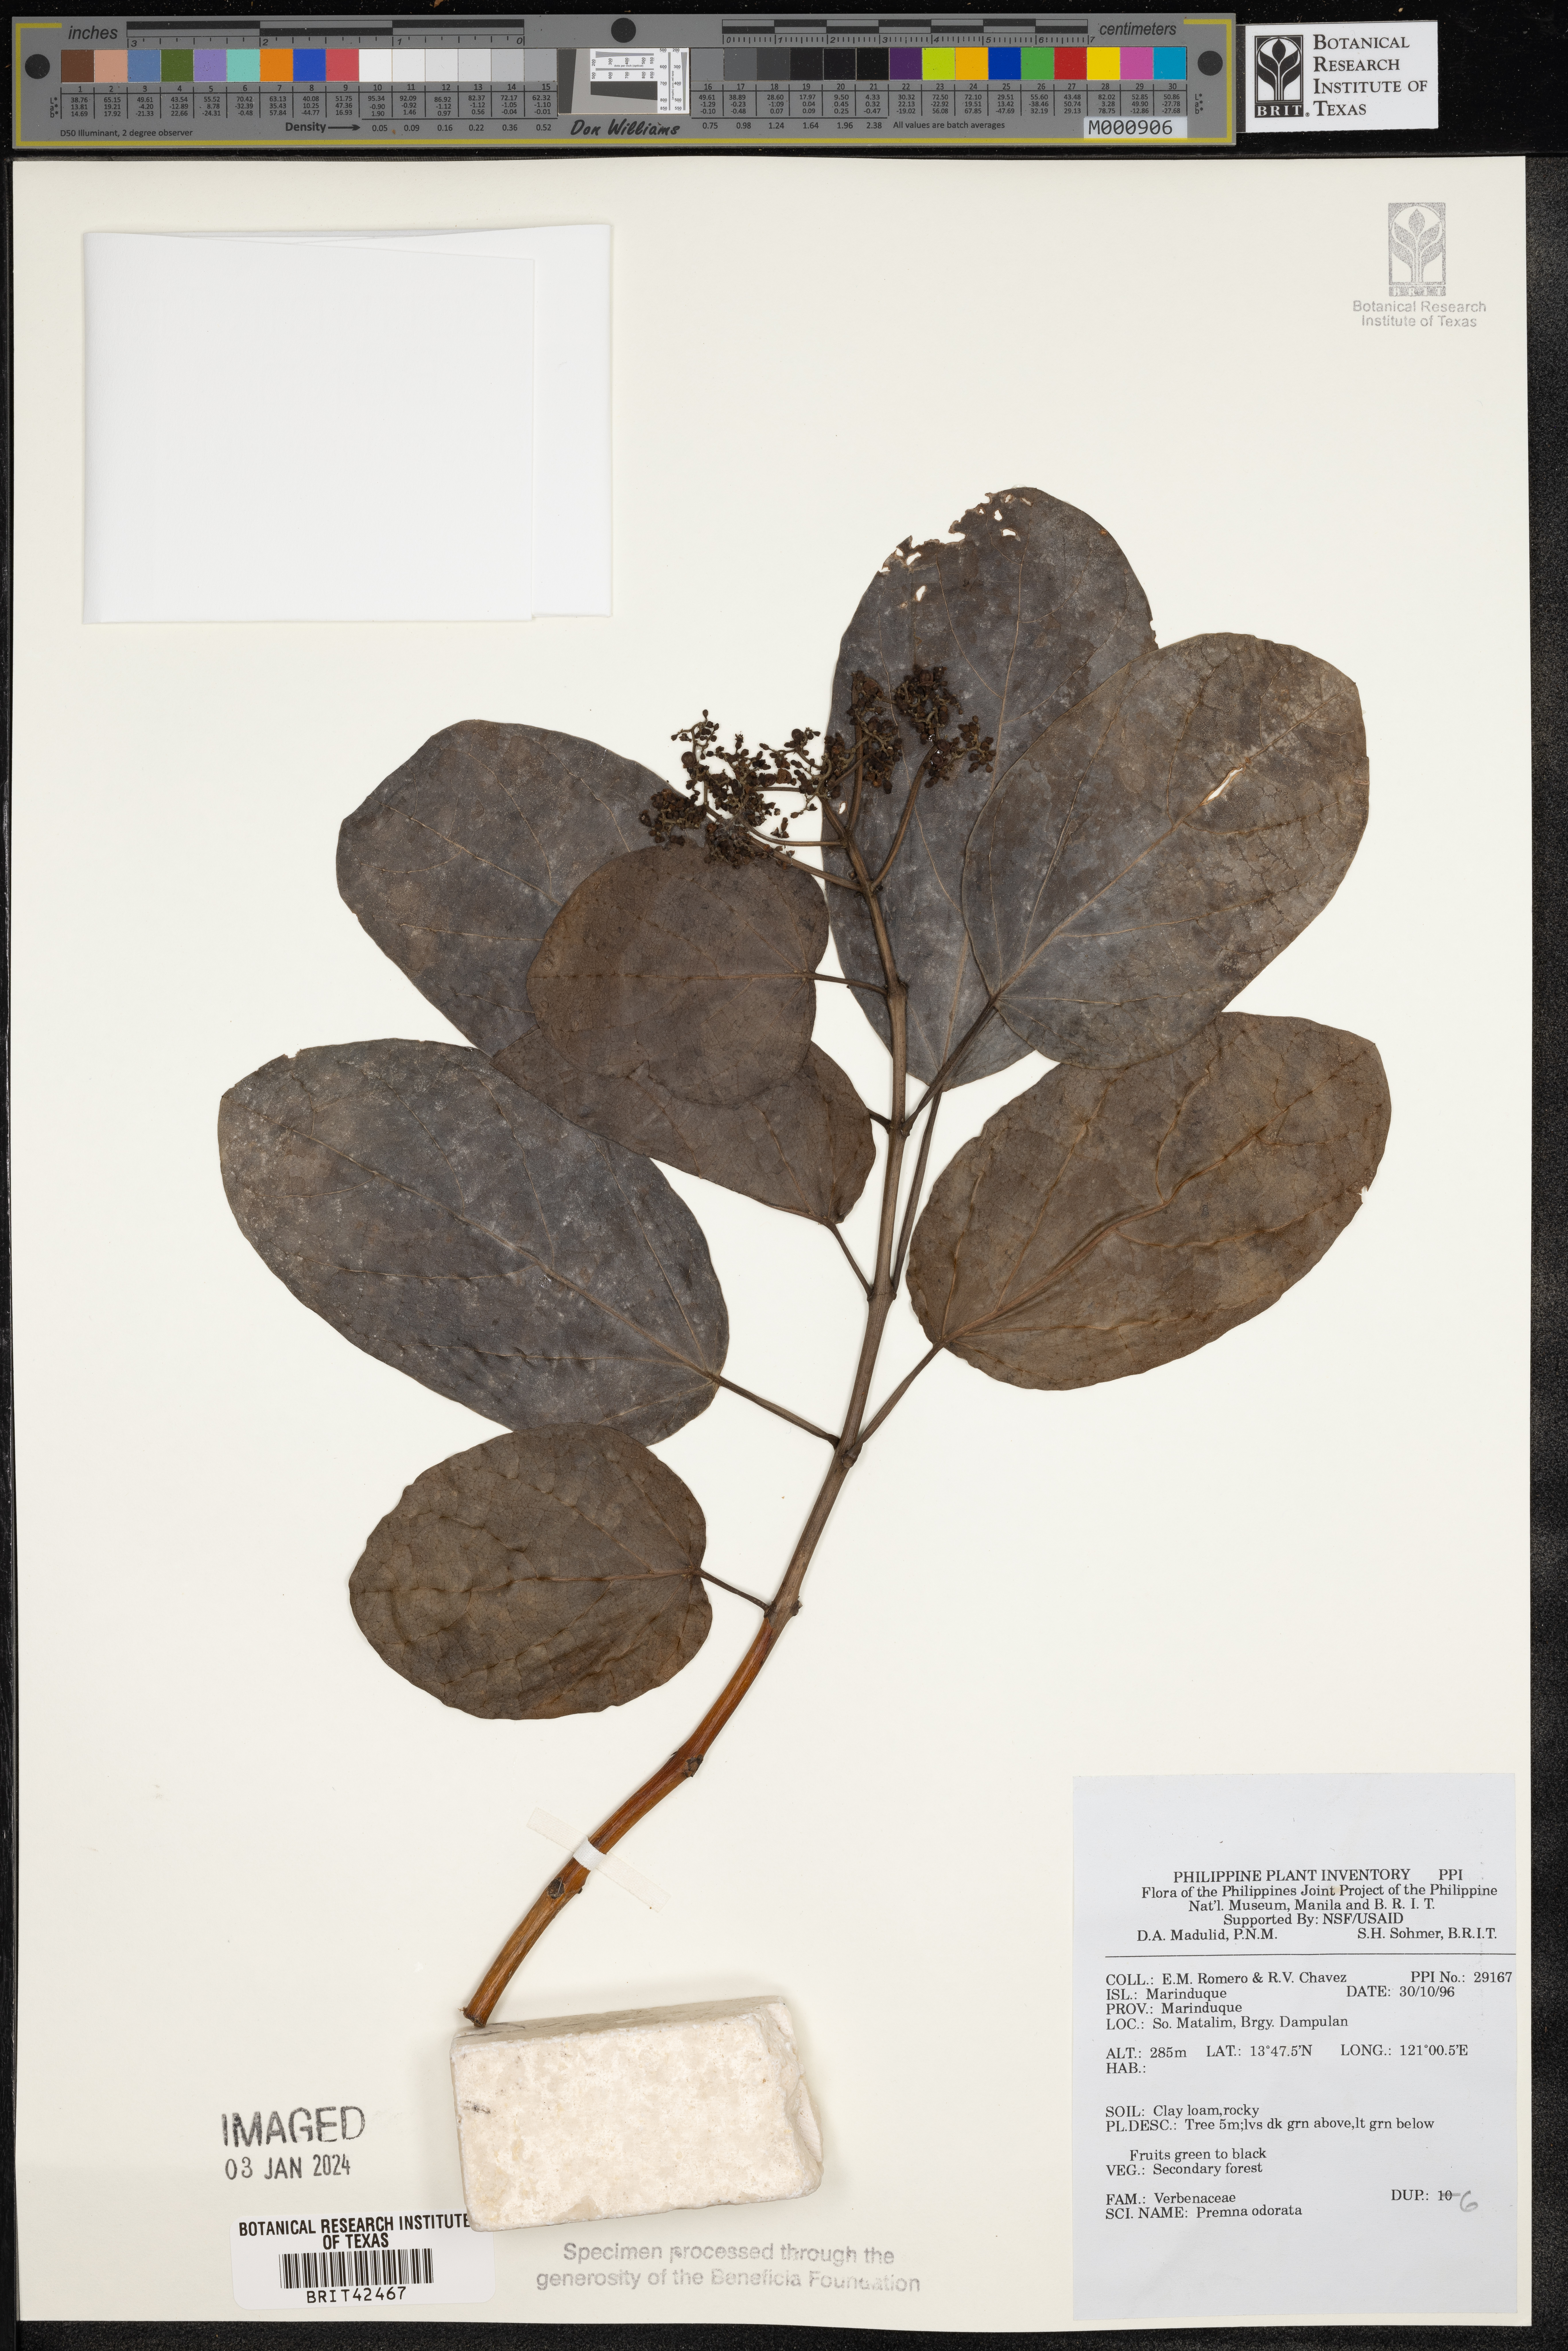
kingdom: Plantae
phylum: Tracheophyta
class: Magnoliopsida
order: Lamiales
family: Lamiaceae
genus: Premna
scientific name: Premna odorata
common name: Fragrant premna
